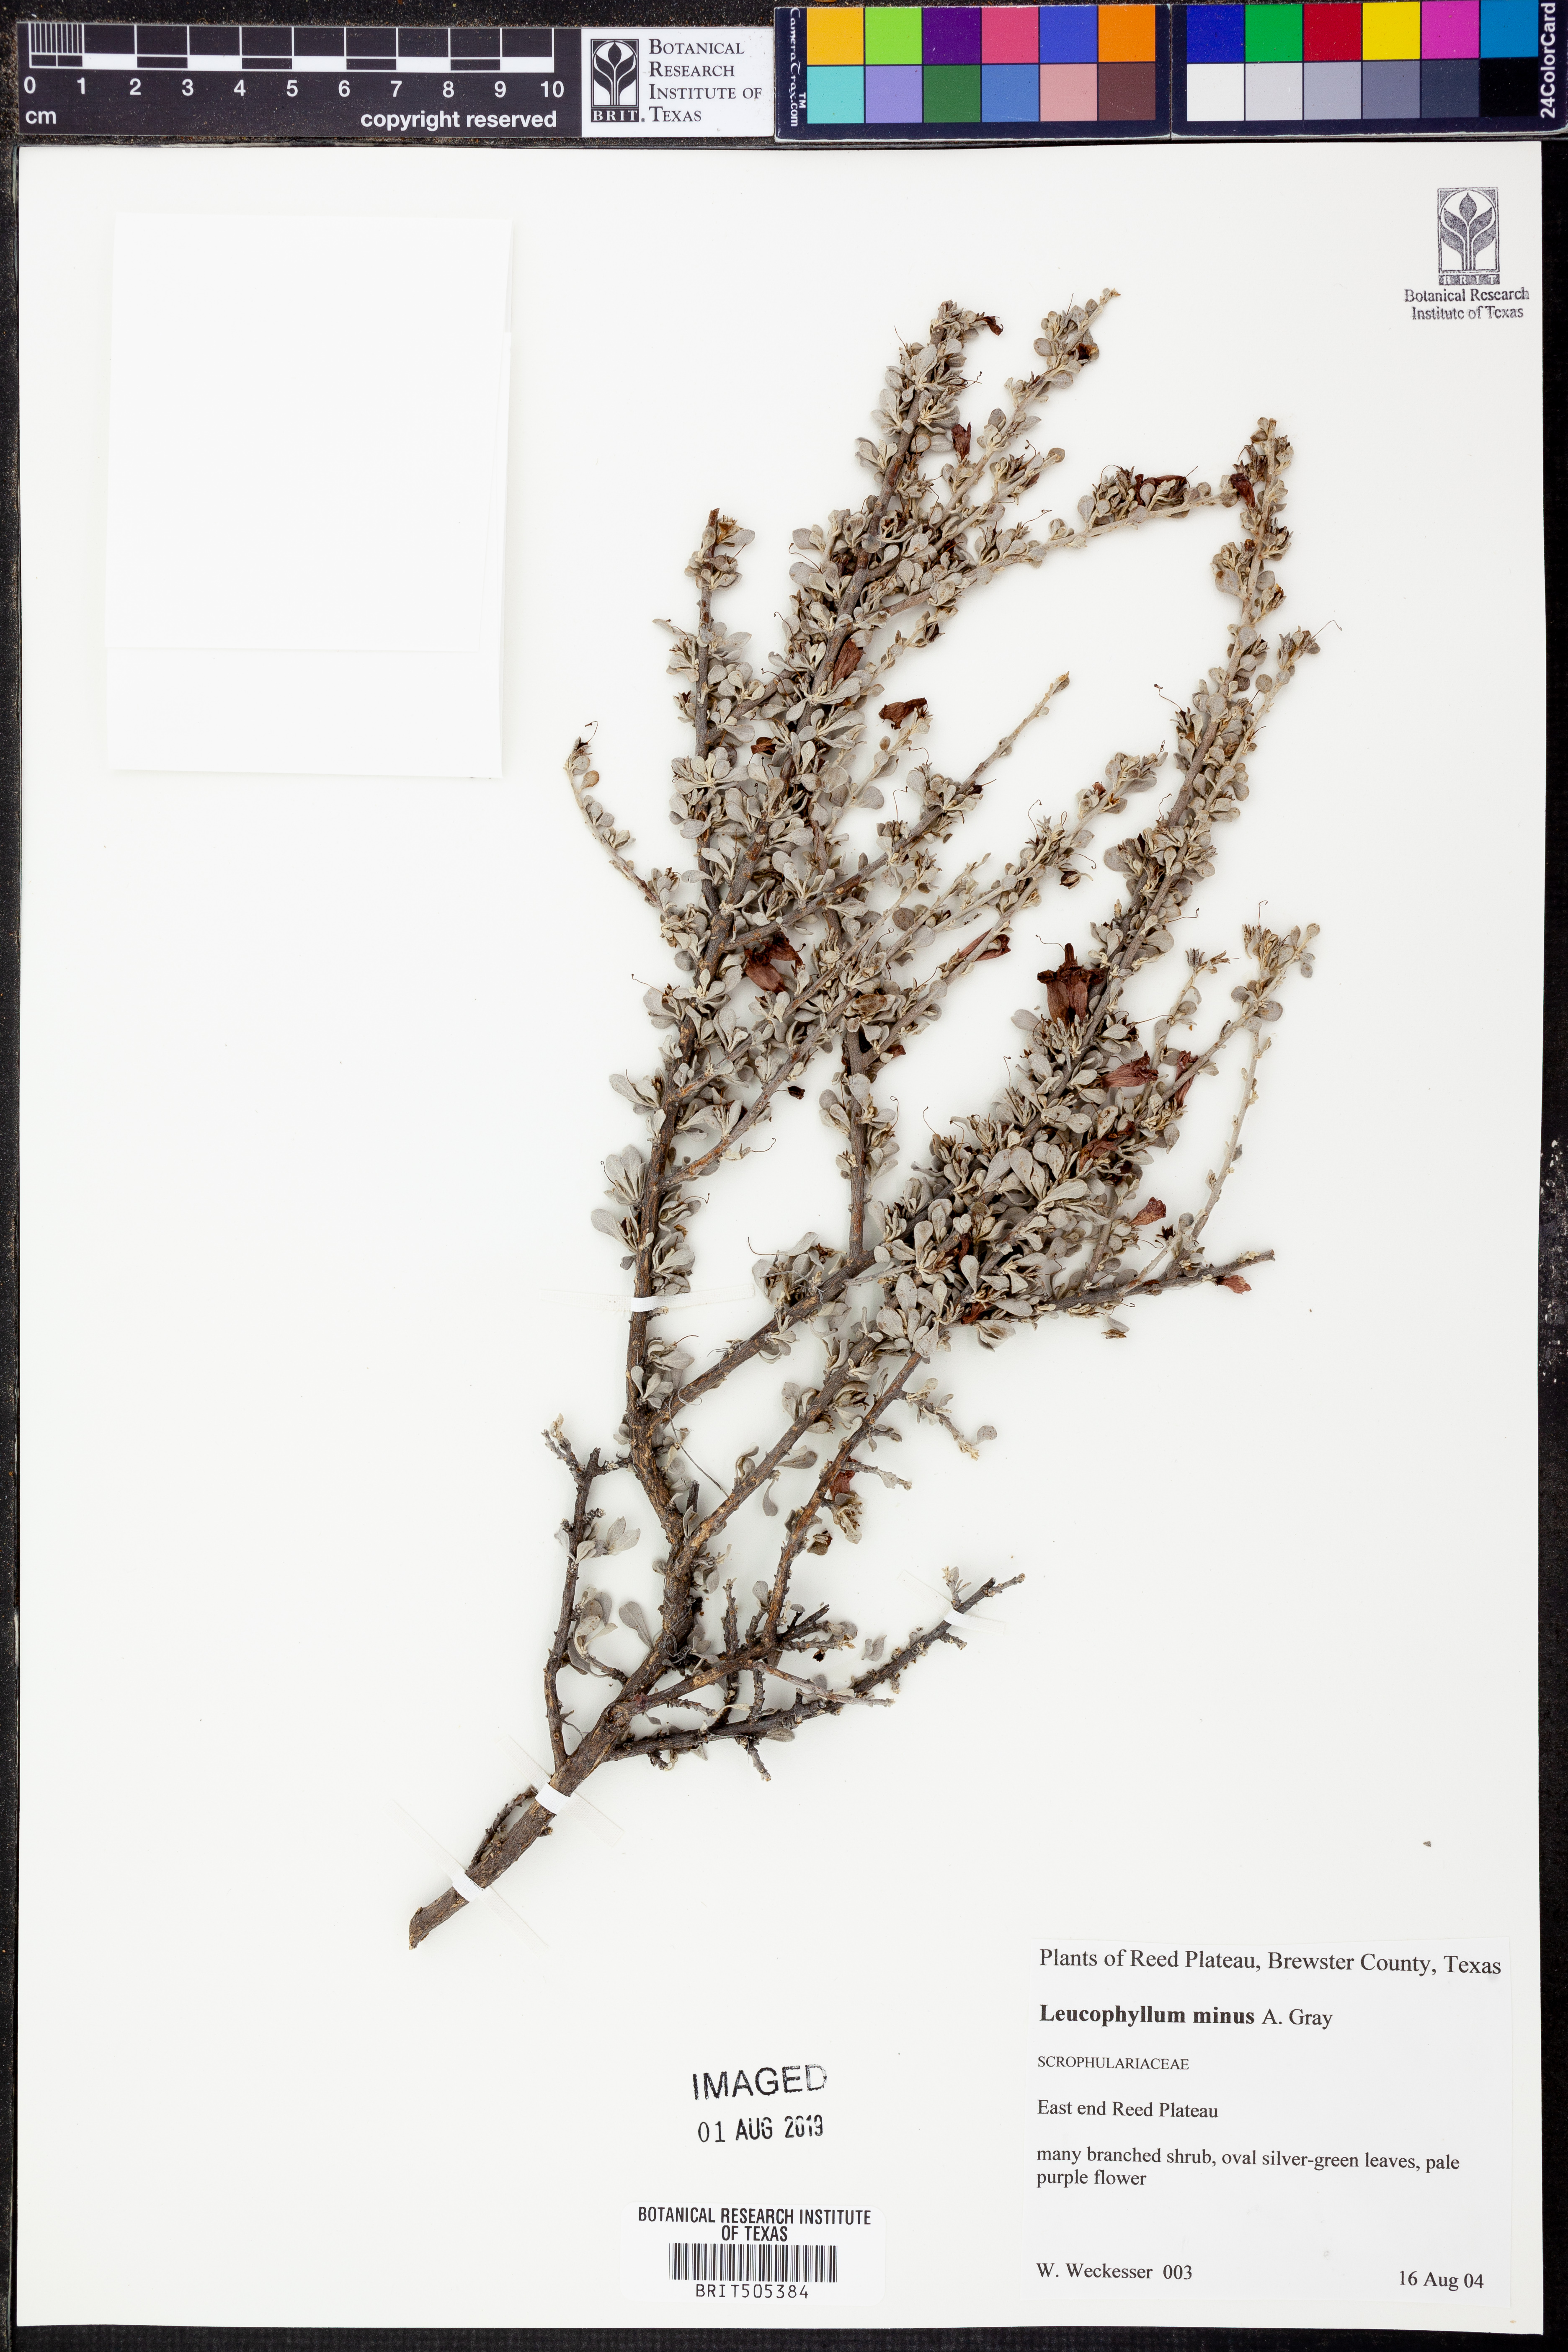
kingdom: Plantae
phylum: Tracheophyta
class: Magnoliopsida
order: Lamiales
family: Scrophulariaceae
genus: Leucophyllum
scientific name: Leucophyllum minus
